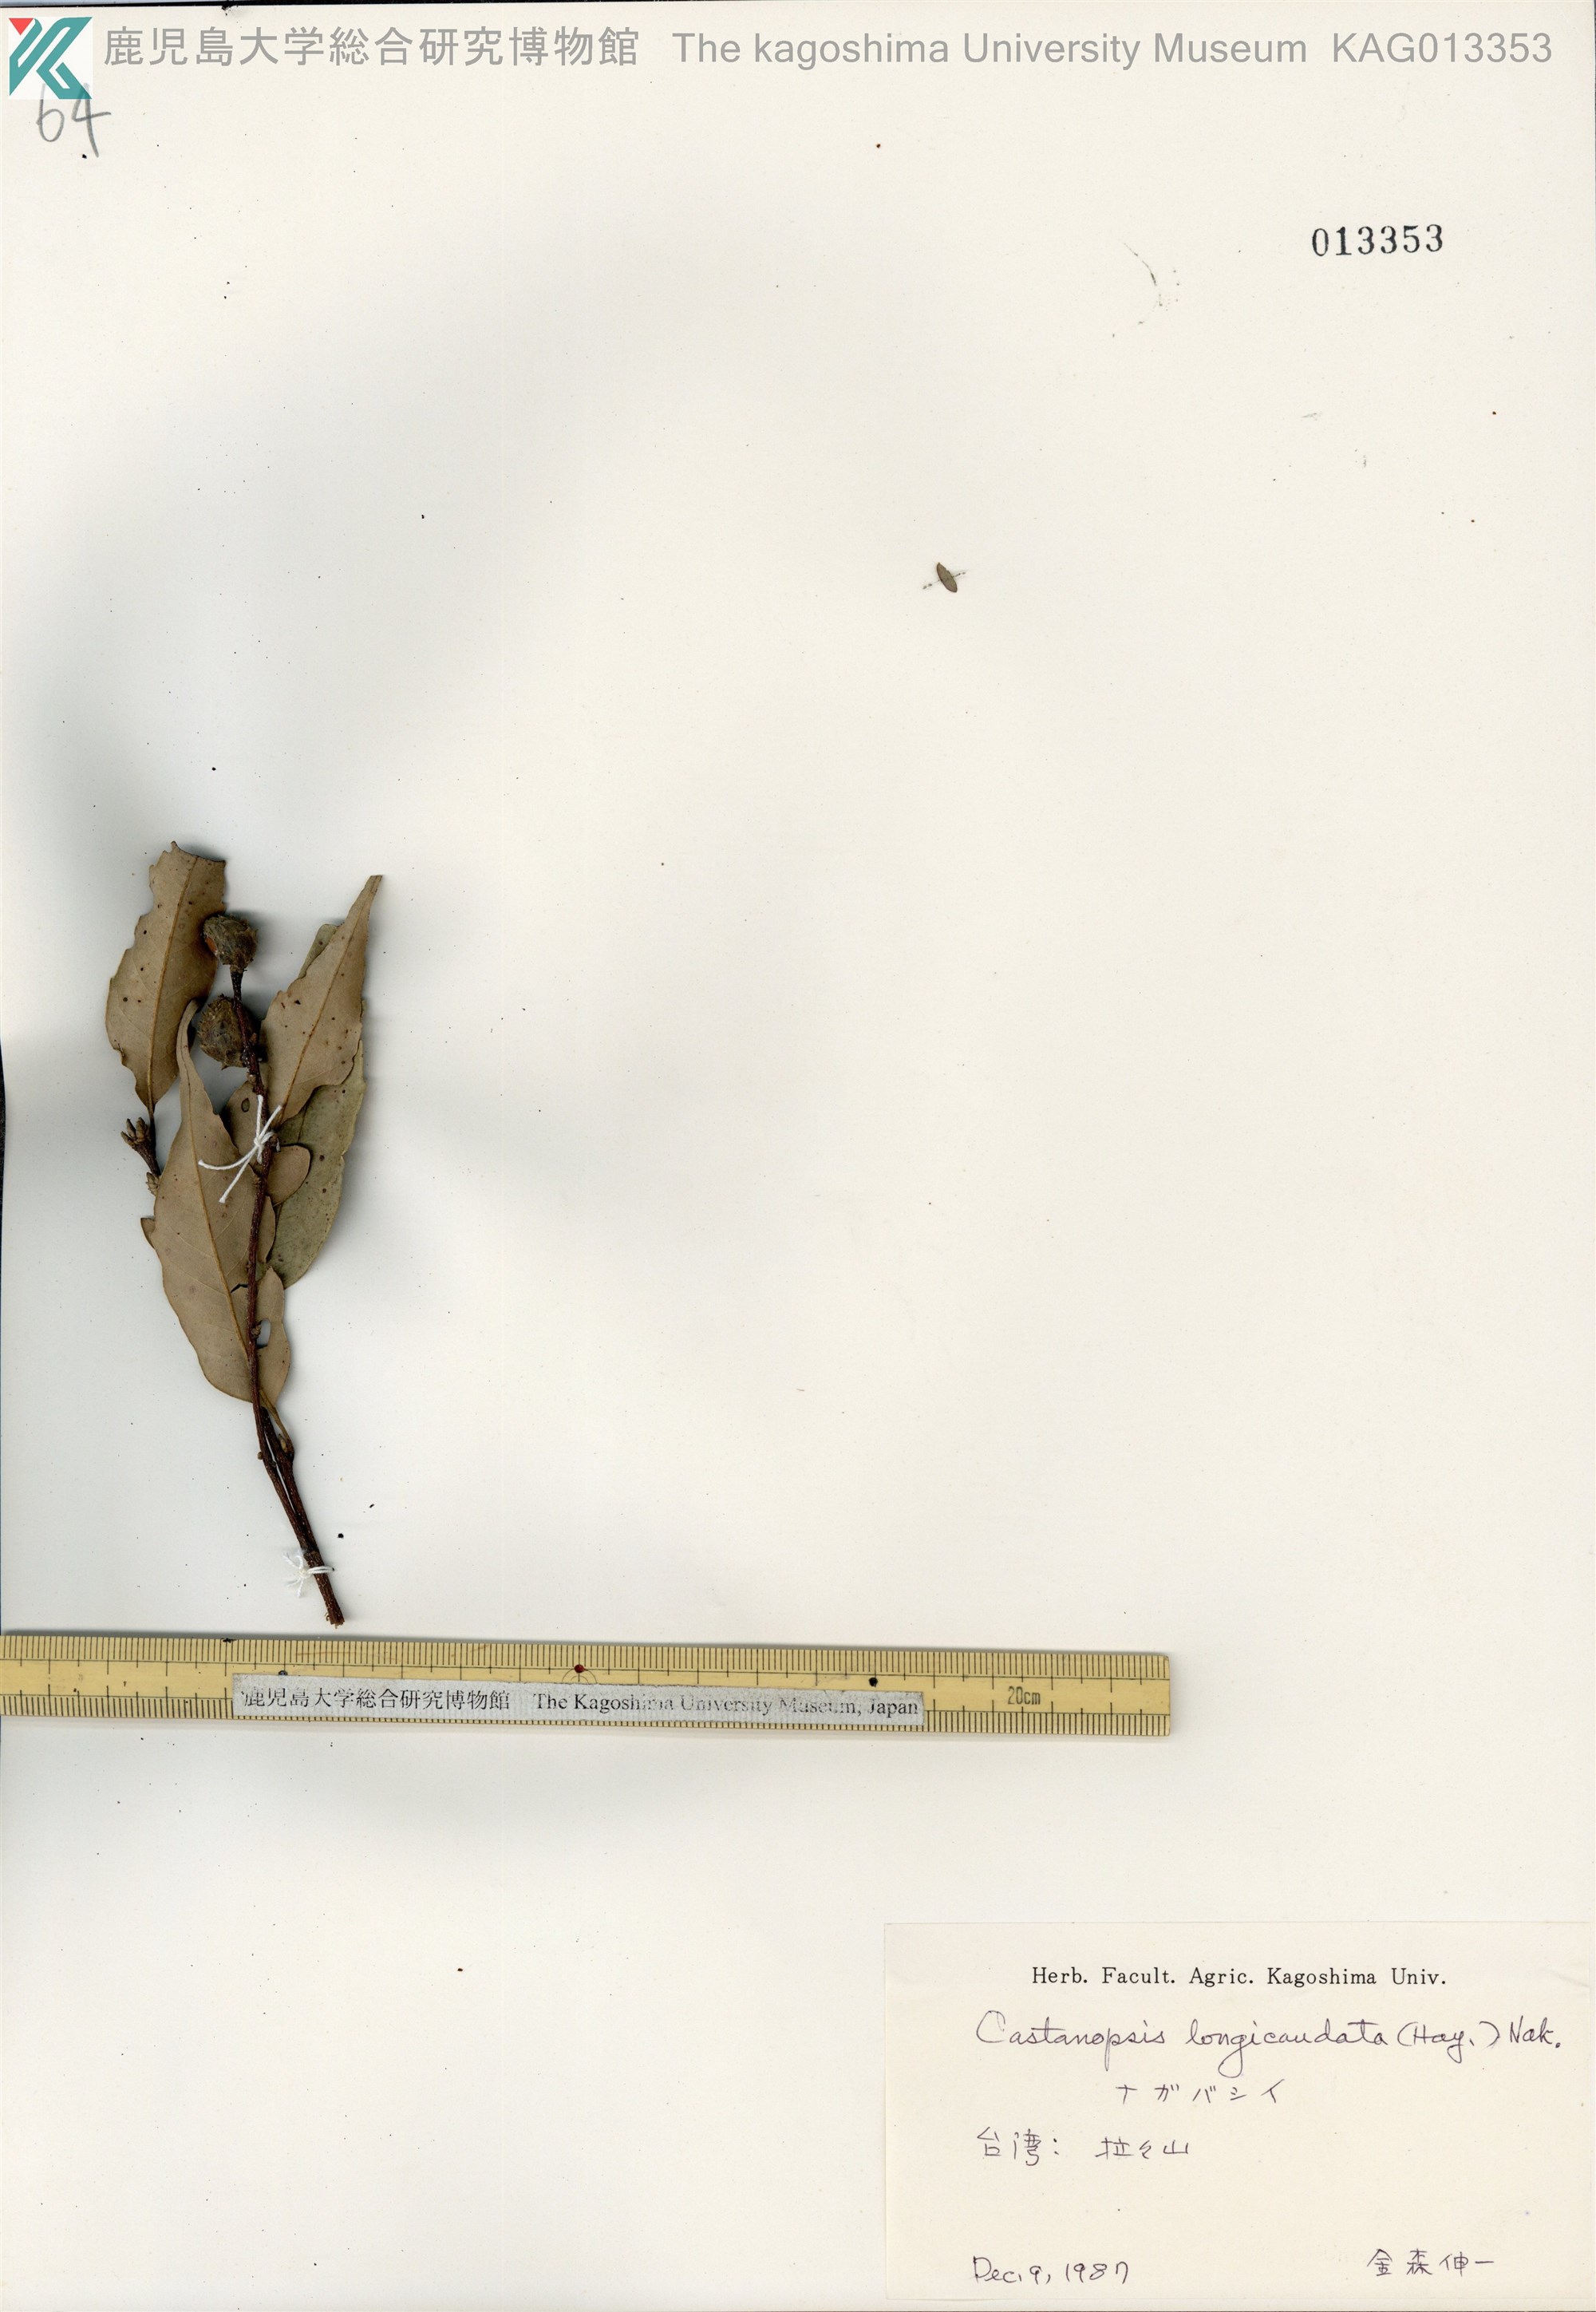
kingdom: Plantae
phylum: Tracheophyta
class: Magnoliopsida
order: Fagales
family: Fagaceae
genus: Castanopsis
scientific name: Castanopsis carlesii
